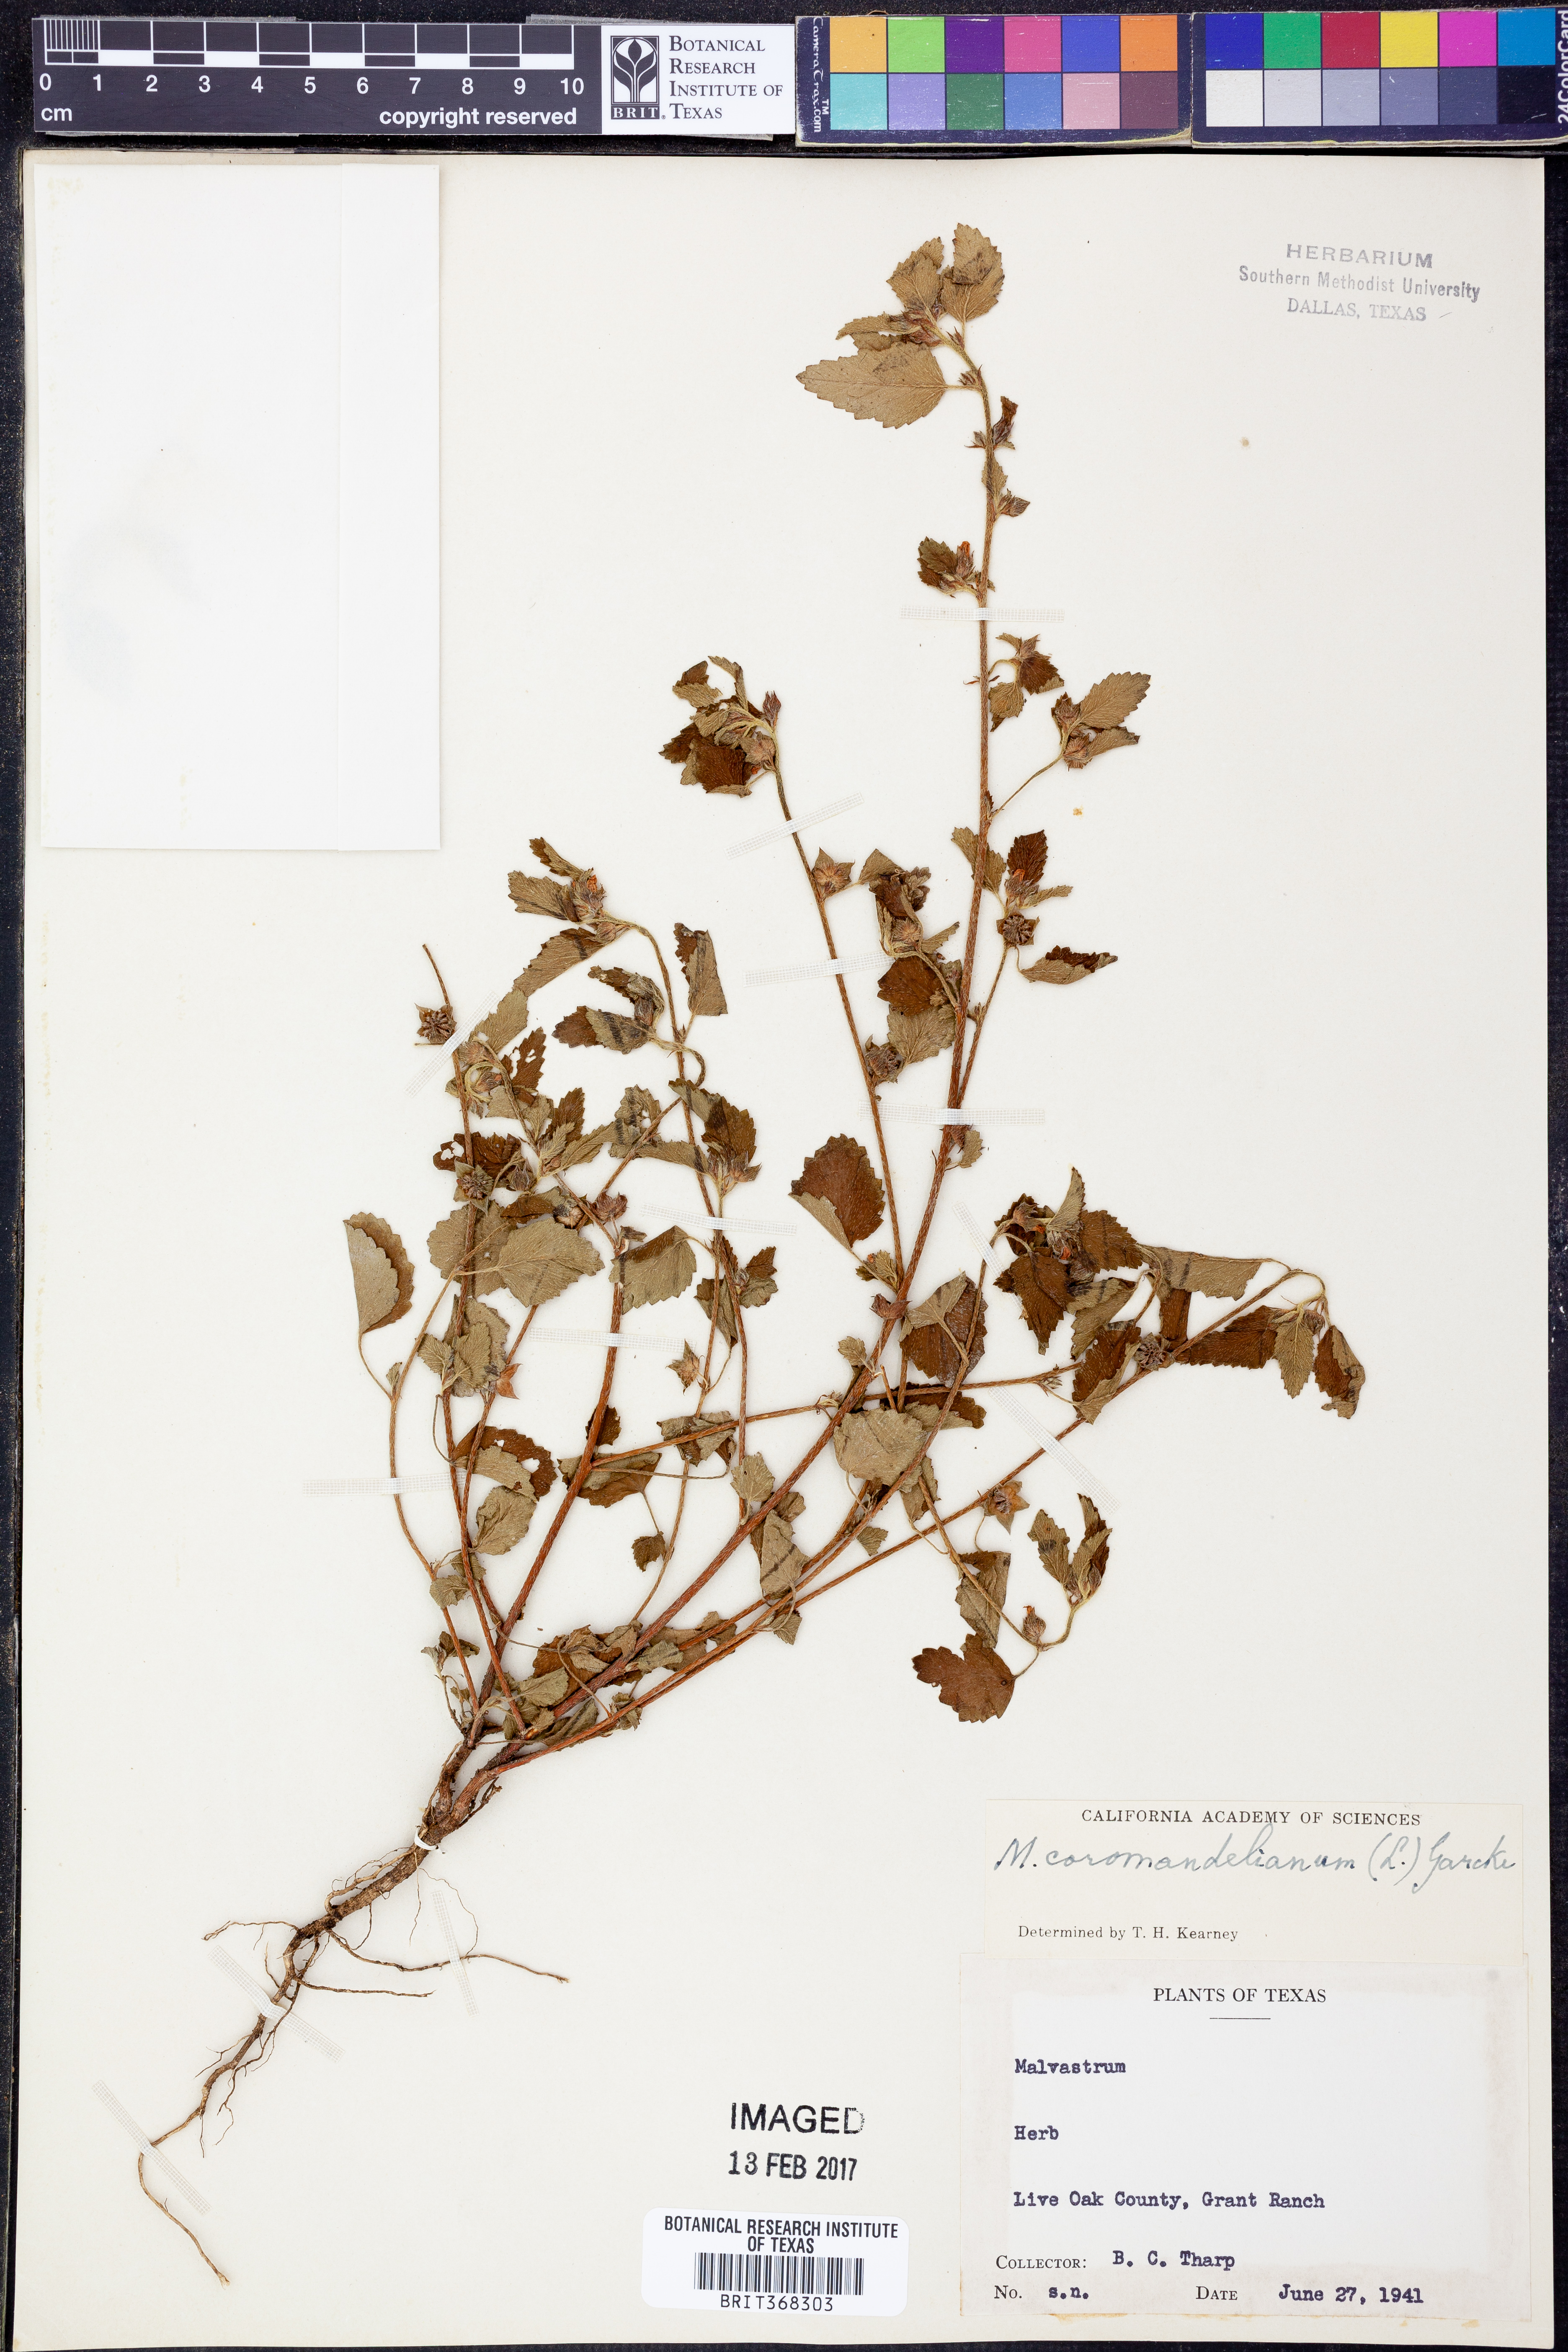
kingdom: Plantae
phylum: Tracheophyta
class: Magnoliopsida
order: Malvales
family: Malvaceae
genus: Malvastrum
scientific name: Malvastrum coromandelianum
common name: Threelobe false mallow
